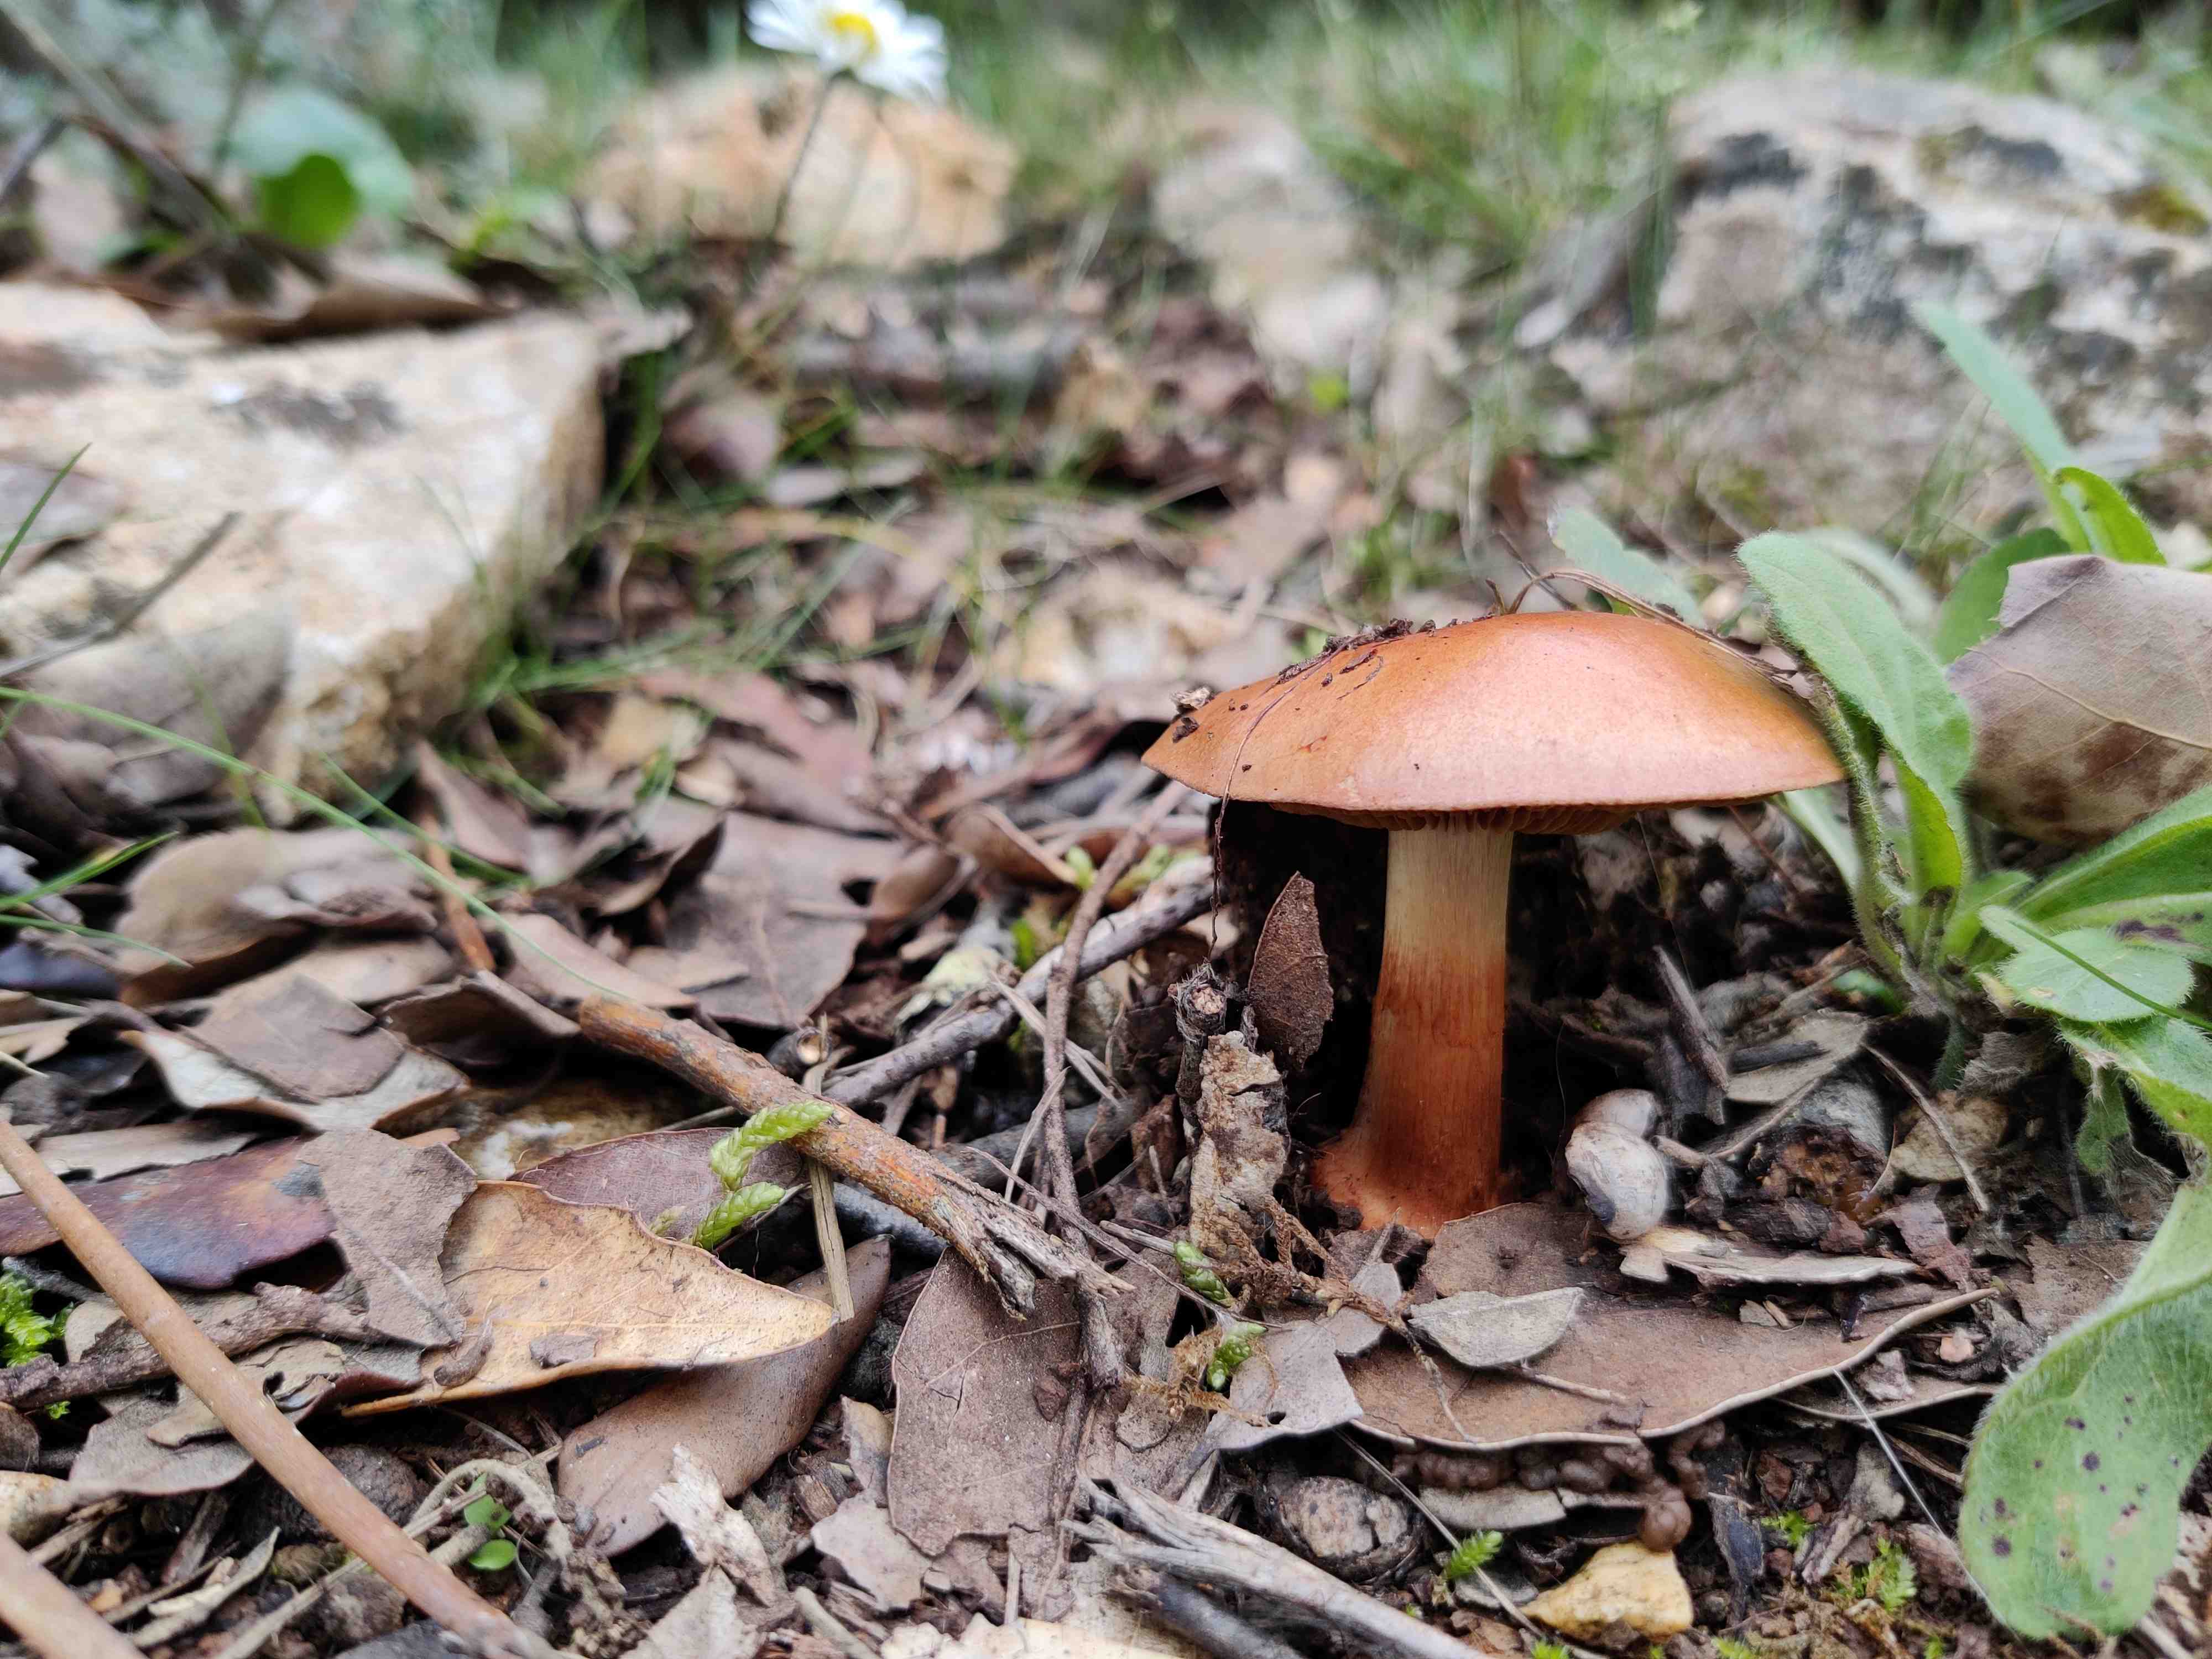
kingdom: Fungi
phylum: Basidiomycota
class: Agaricomycetes
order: Agaricales
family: Cortinariaceae
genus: Calonarius
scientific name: Calonarius splendificus
